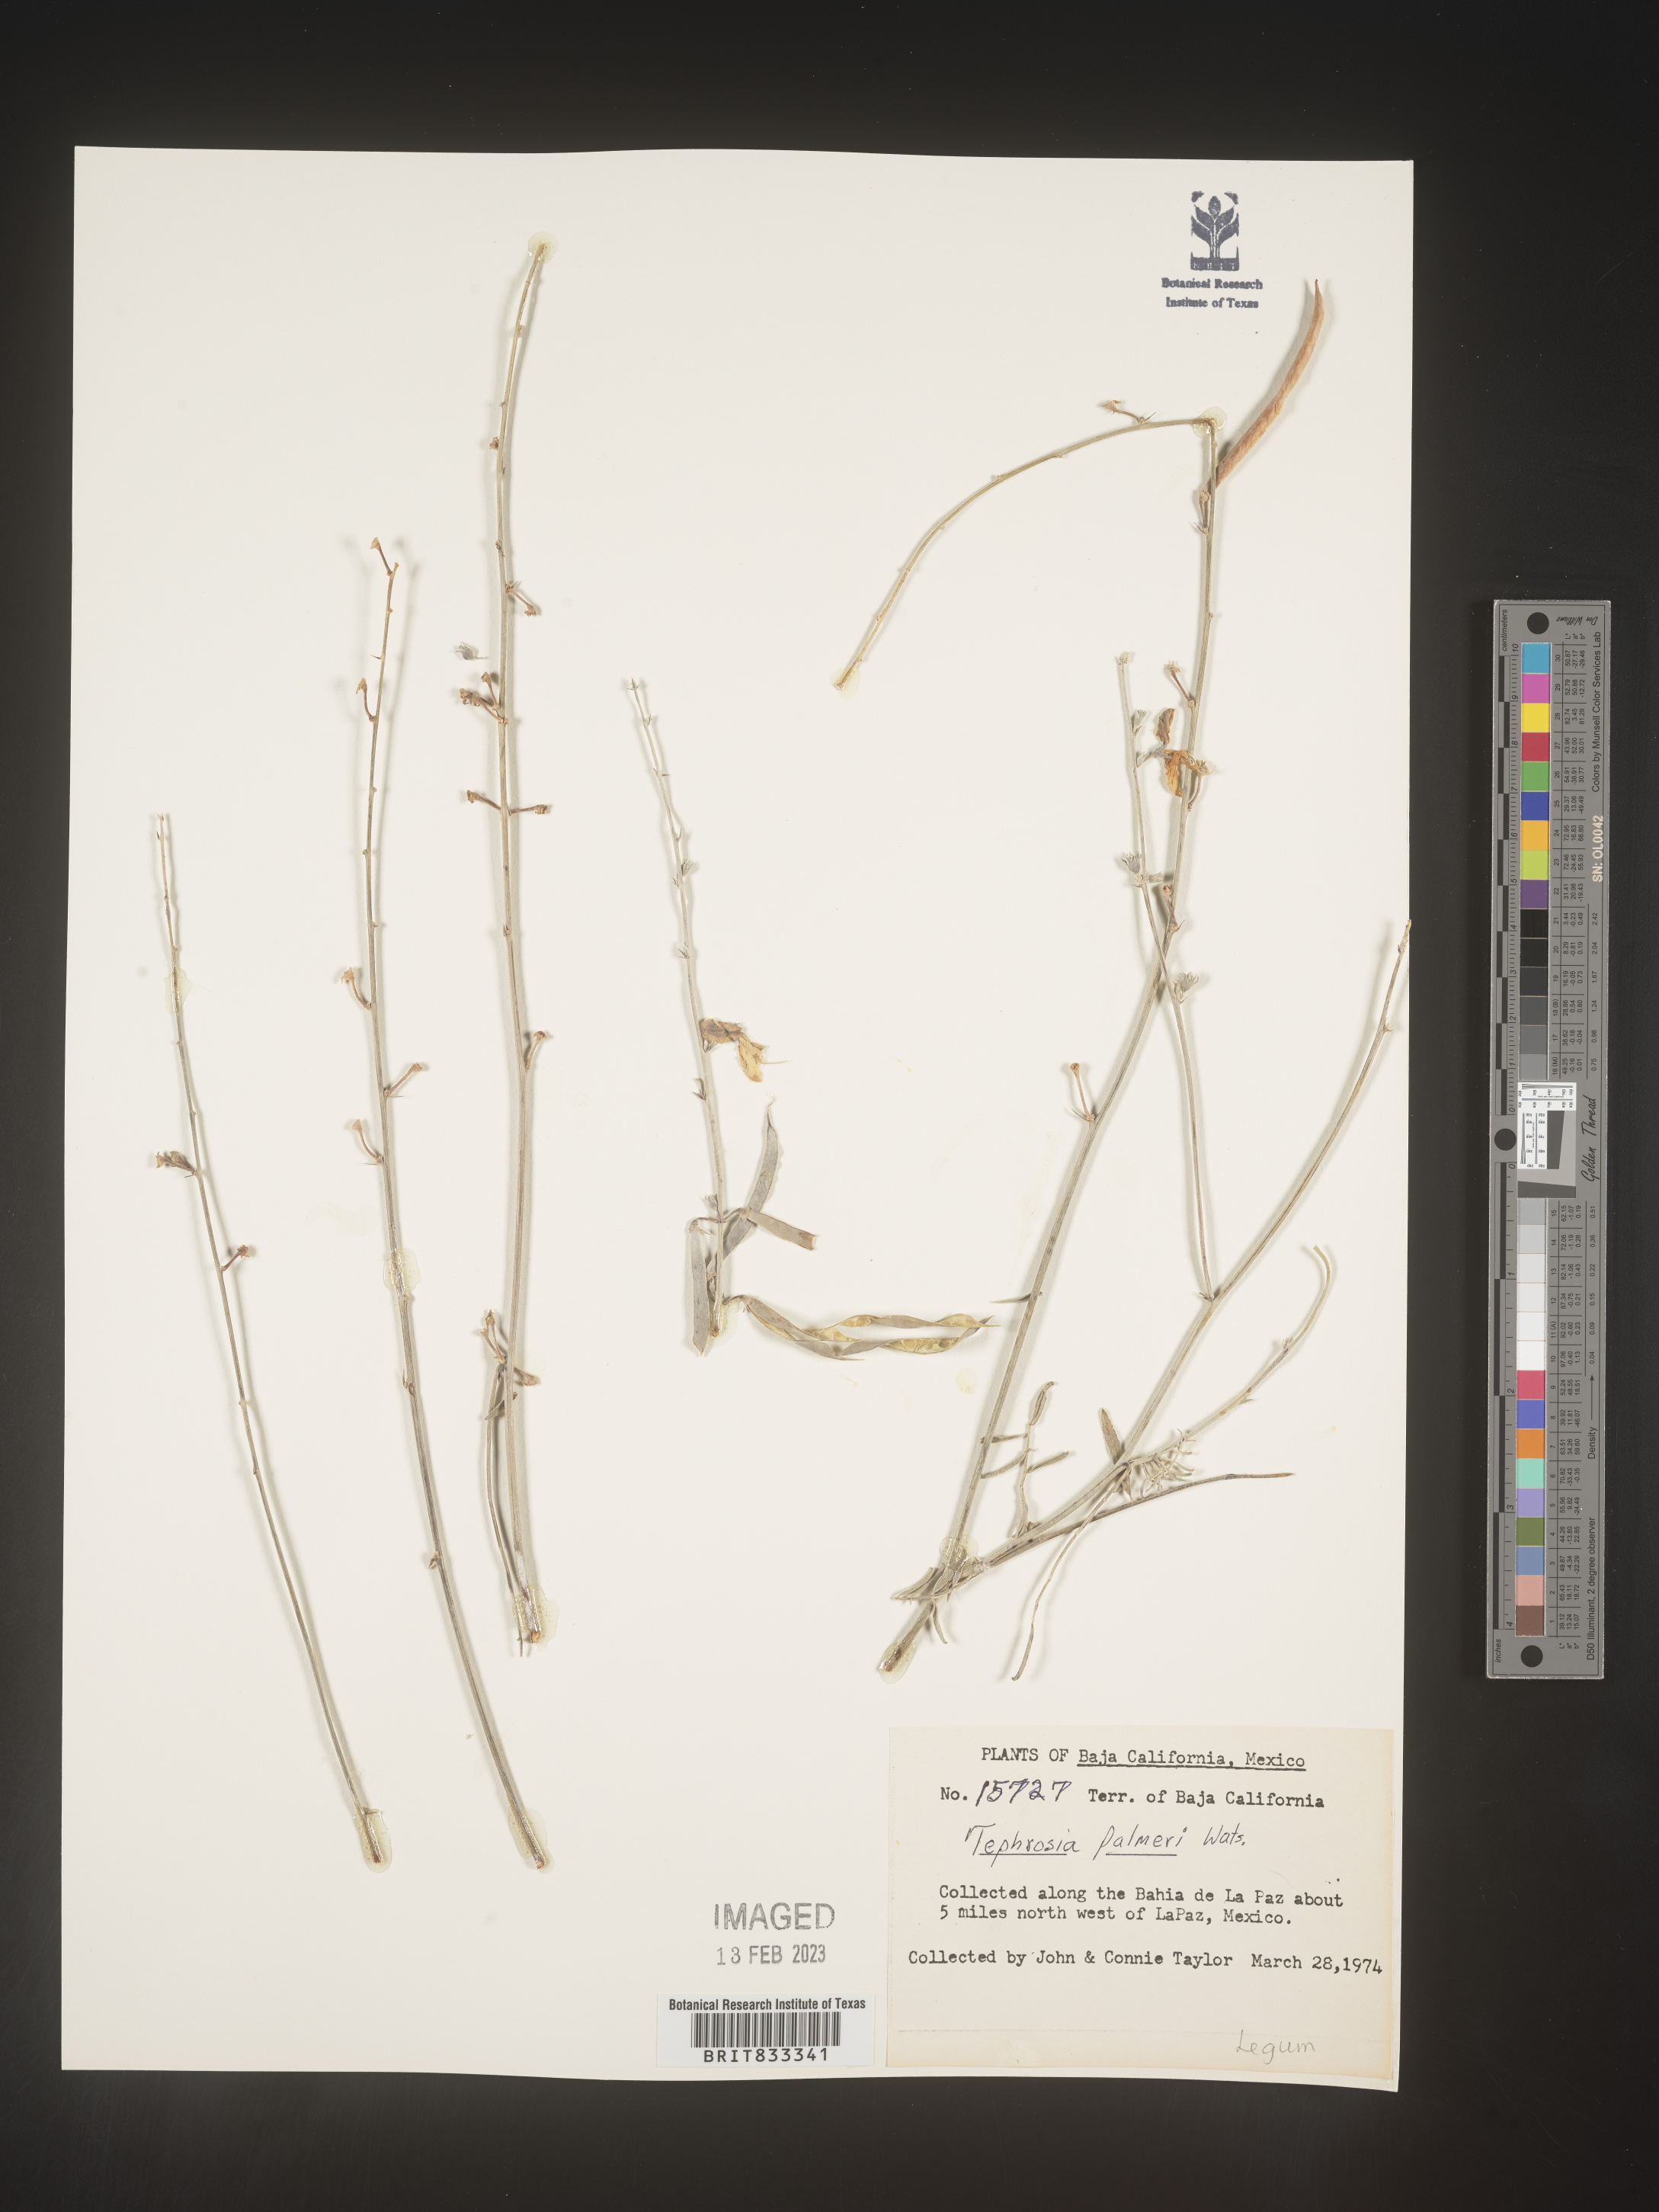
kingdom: Plantae
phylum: Tracheophyta
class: Magnoliopsida
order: Fabales
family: Fabaceae
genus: Tephrosia
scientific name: Tephrosia
